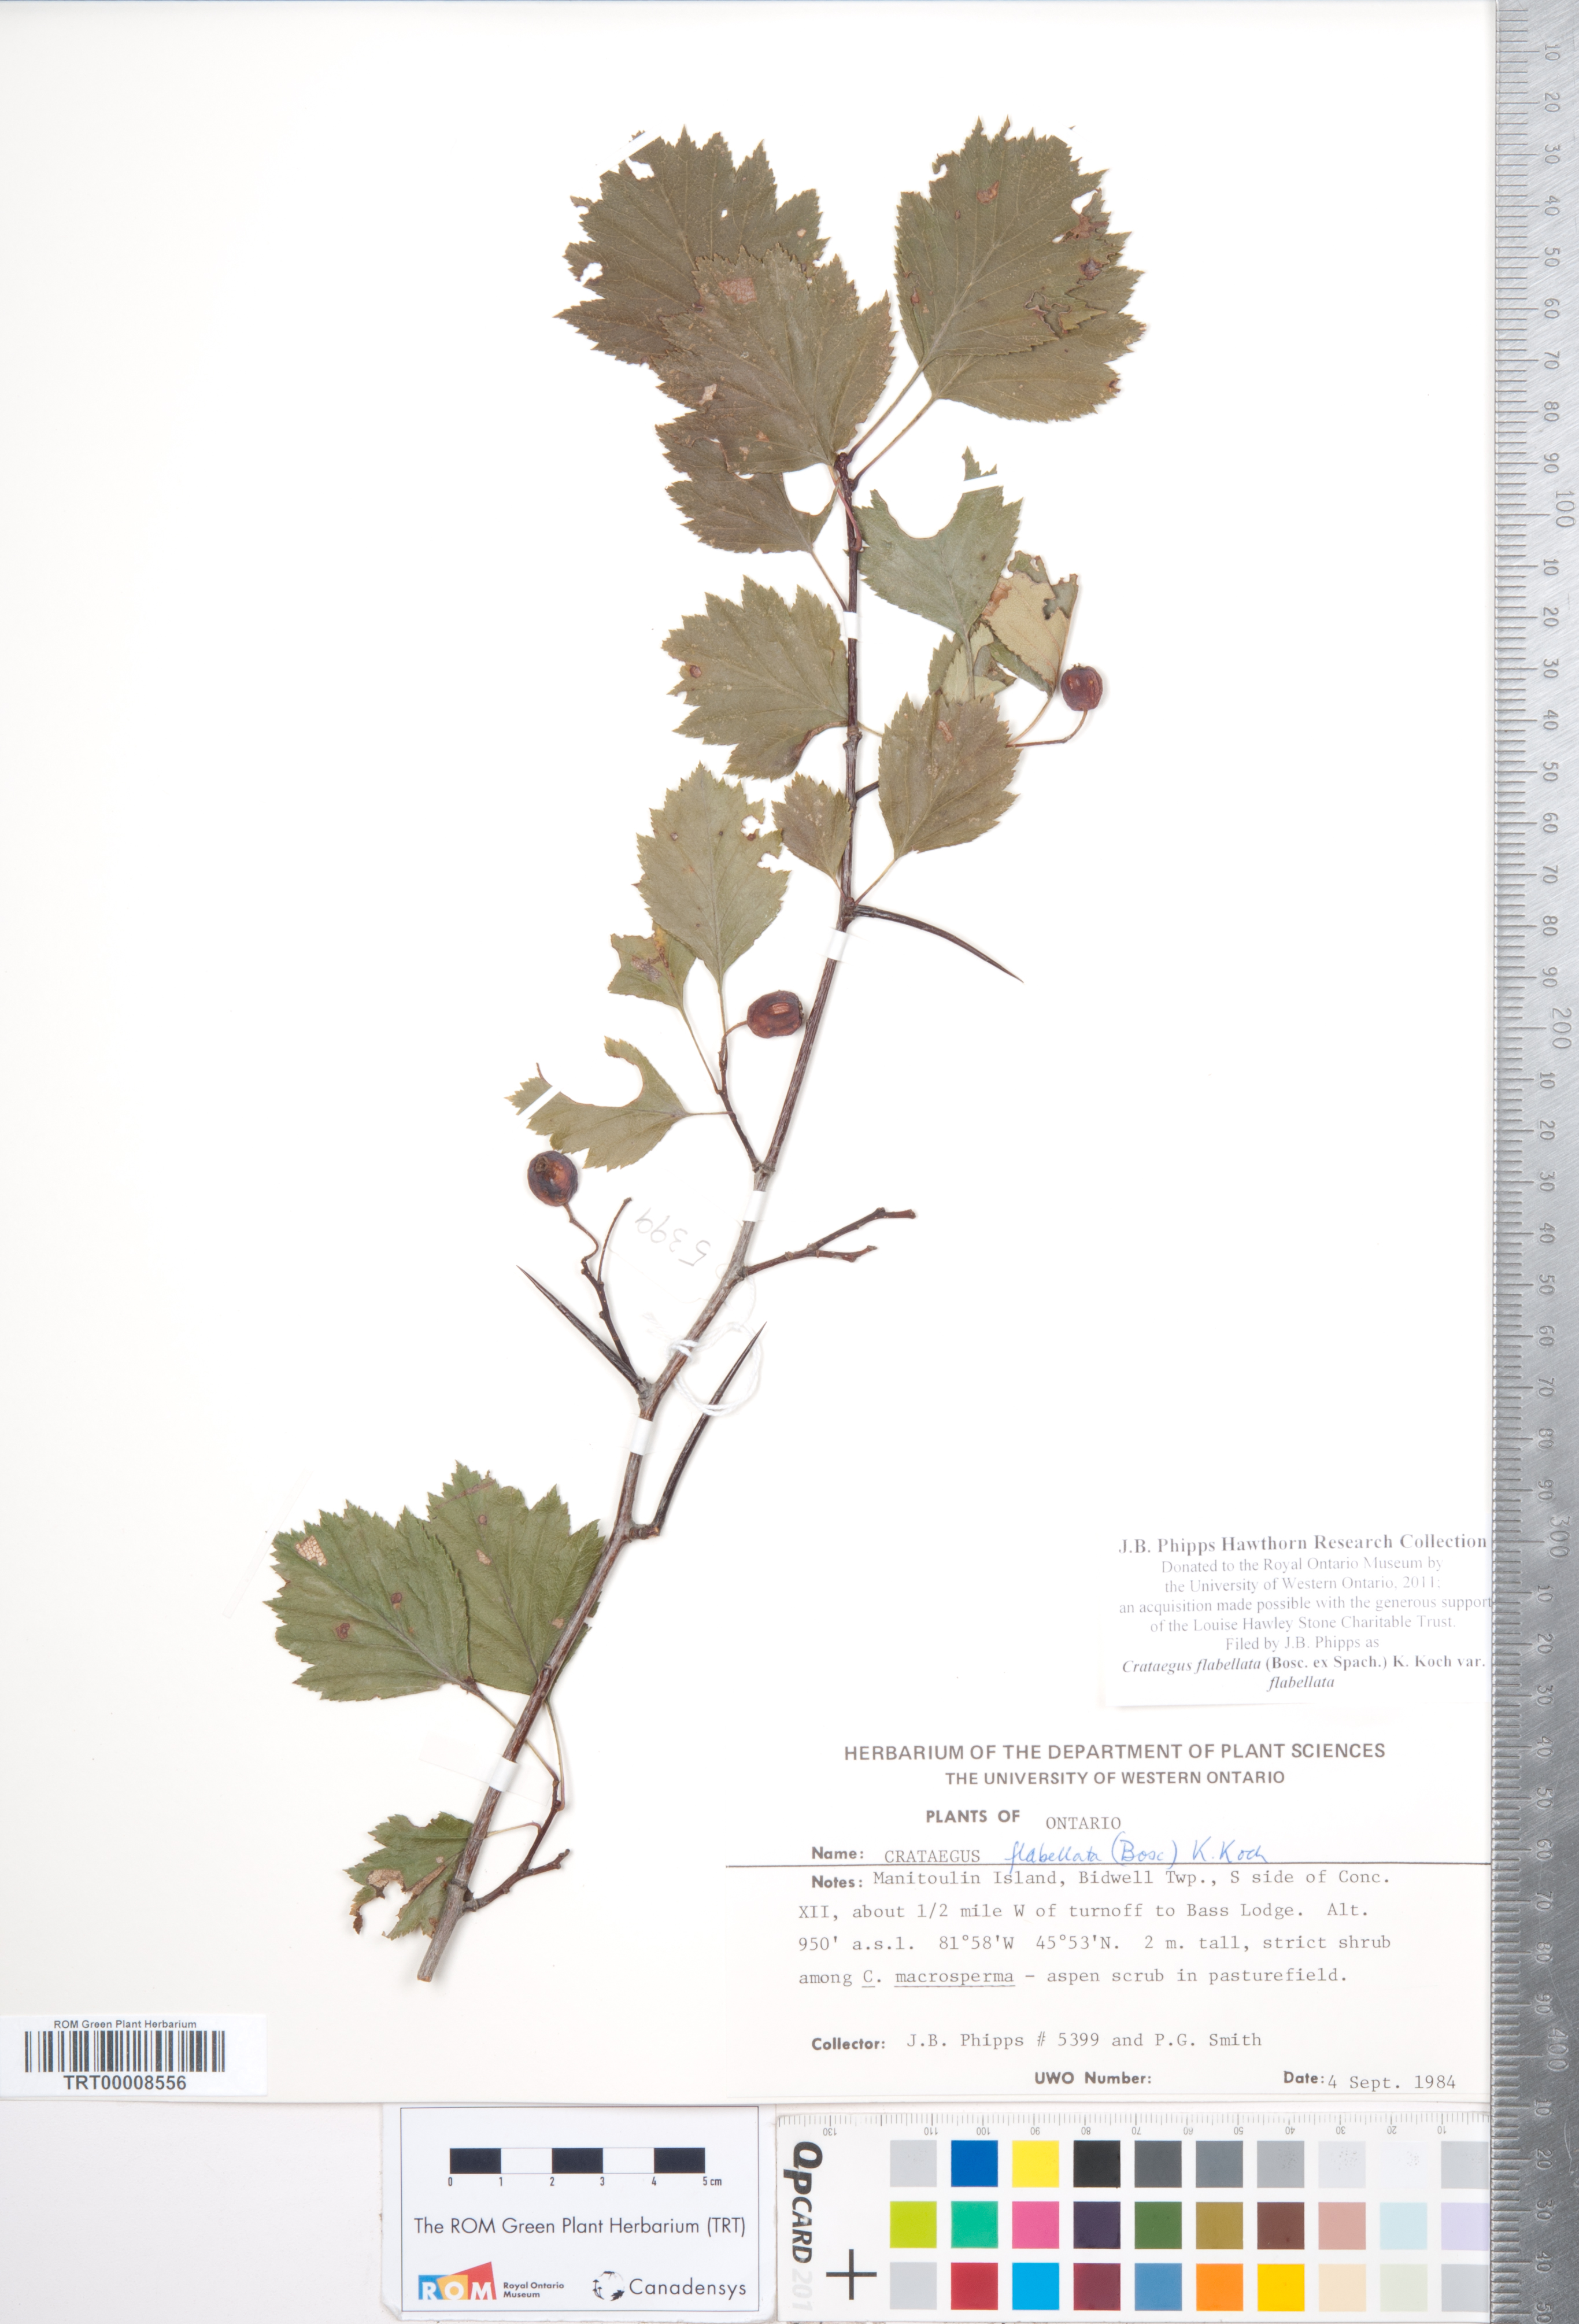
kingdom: Plantae
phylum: Tracheophyta
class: Magnoliopsida
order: Rosales
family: Rosaceae
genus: Crataegus
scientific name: Crataegus flabellata
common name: Bosc's hawthorn
